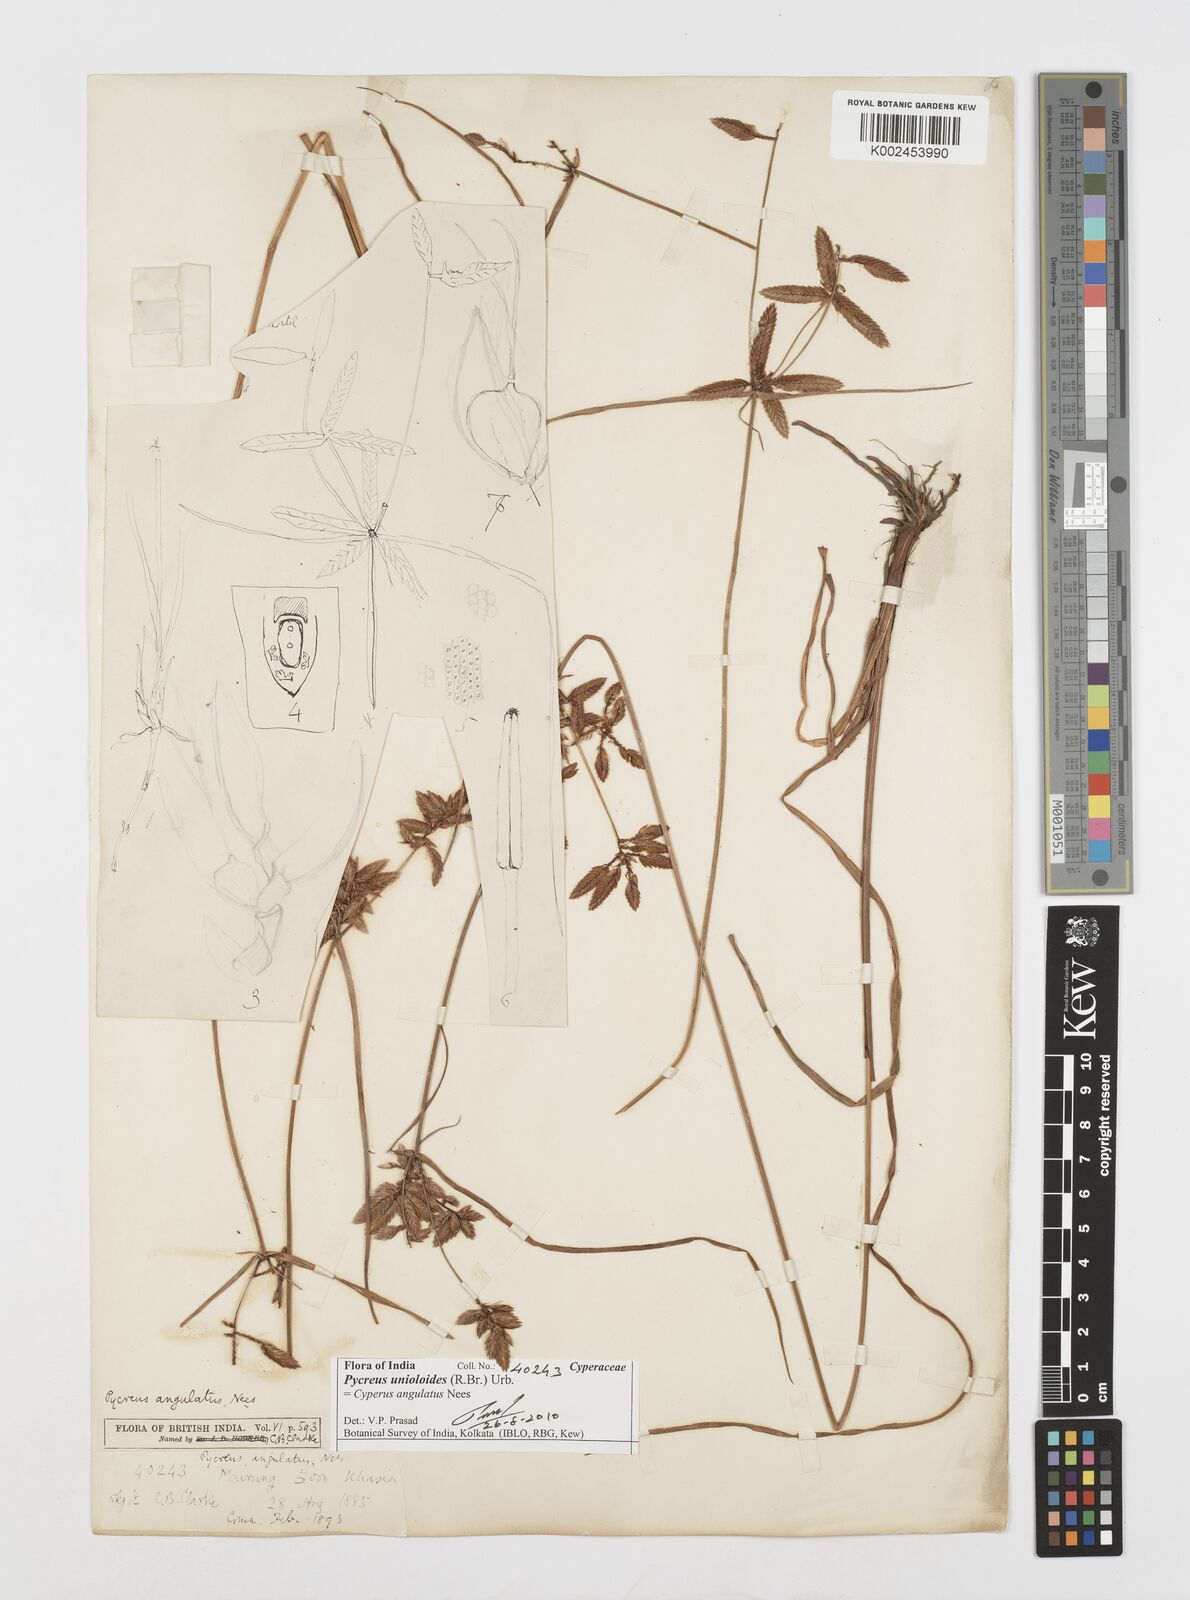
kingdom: Plantae
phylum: Tracheophyta
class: Liliopsida
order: Poales
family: Cyperaceae
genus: Cyperus
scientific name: Cyperus unioloides
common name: Uniola flatsedge
